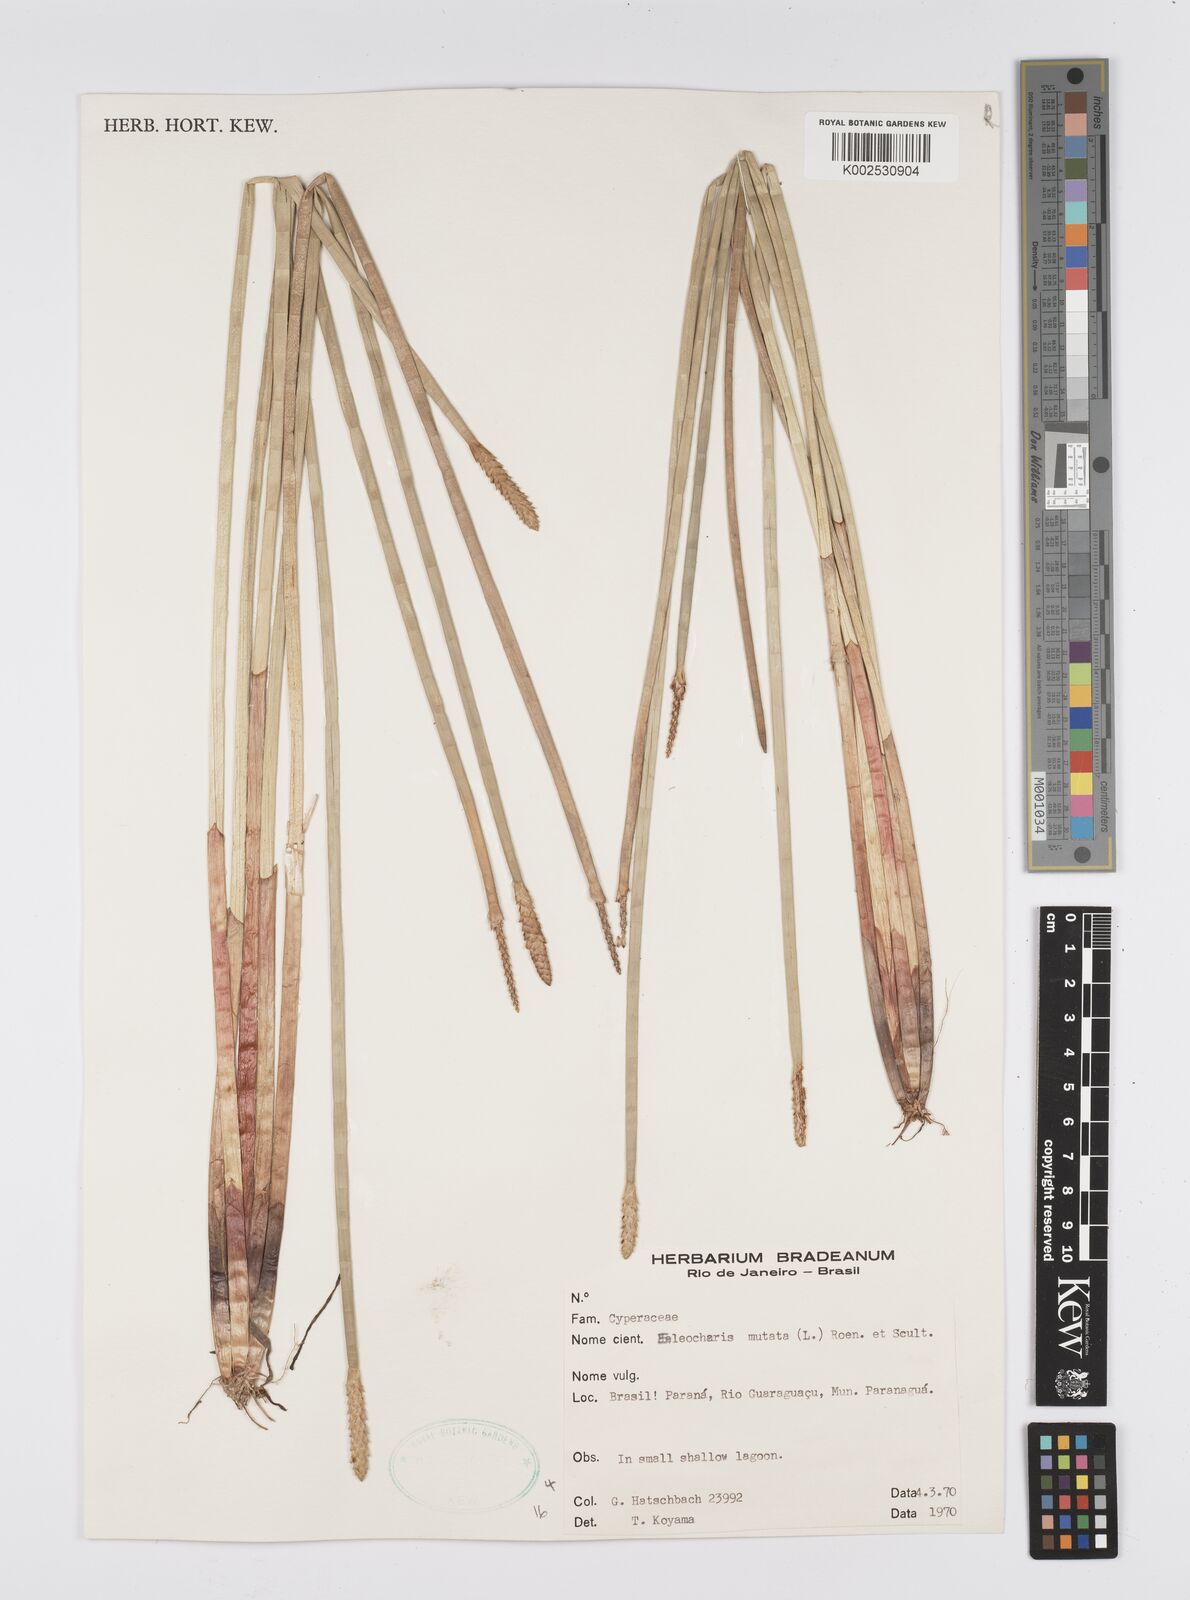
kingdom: Plantae
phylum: Tracheophyta
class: Liliopsida
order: Poales
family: Cyperaceae
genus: Eleocharis
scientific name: Eleocharis mutata
